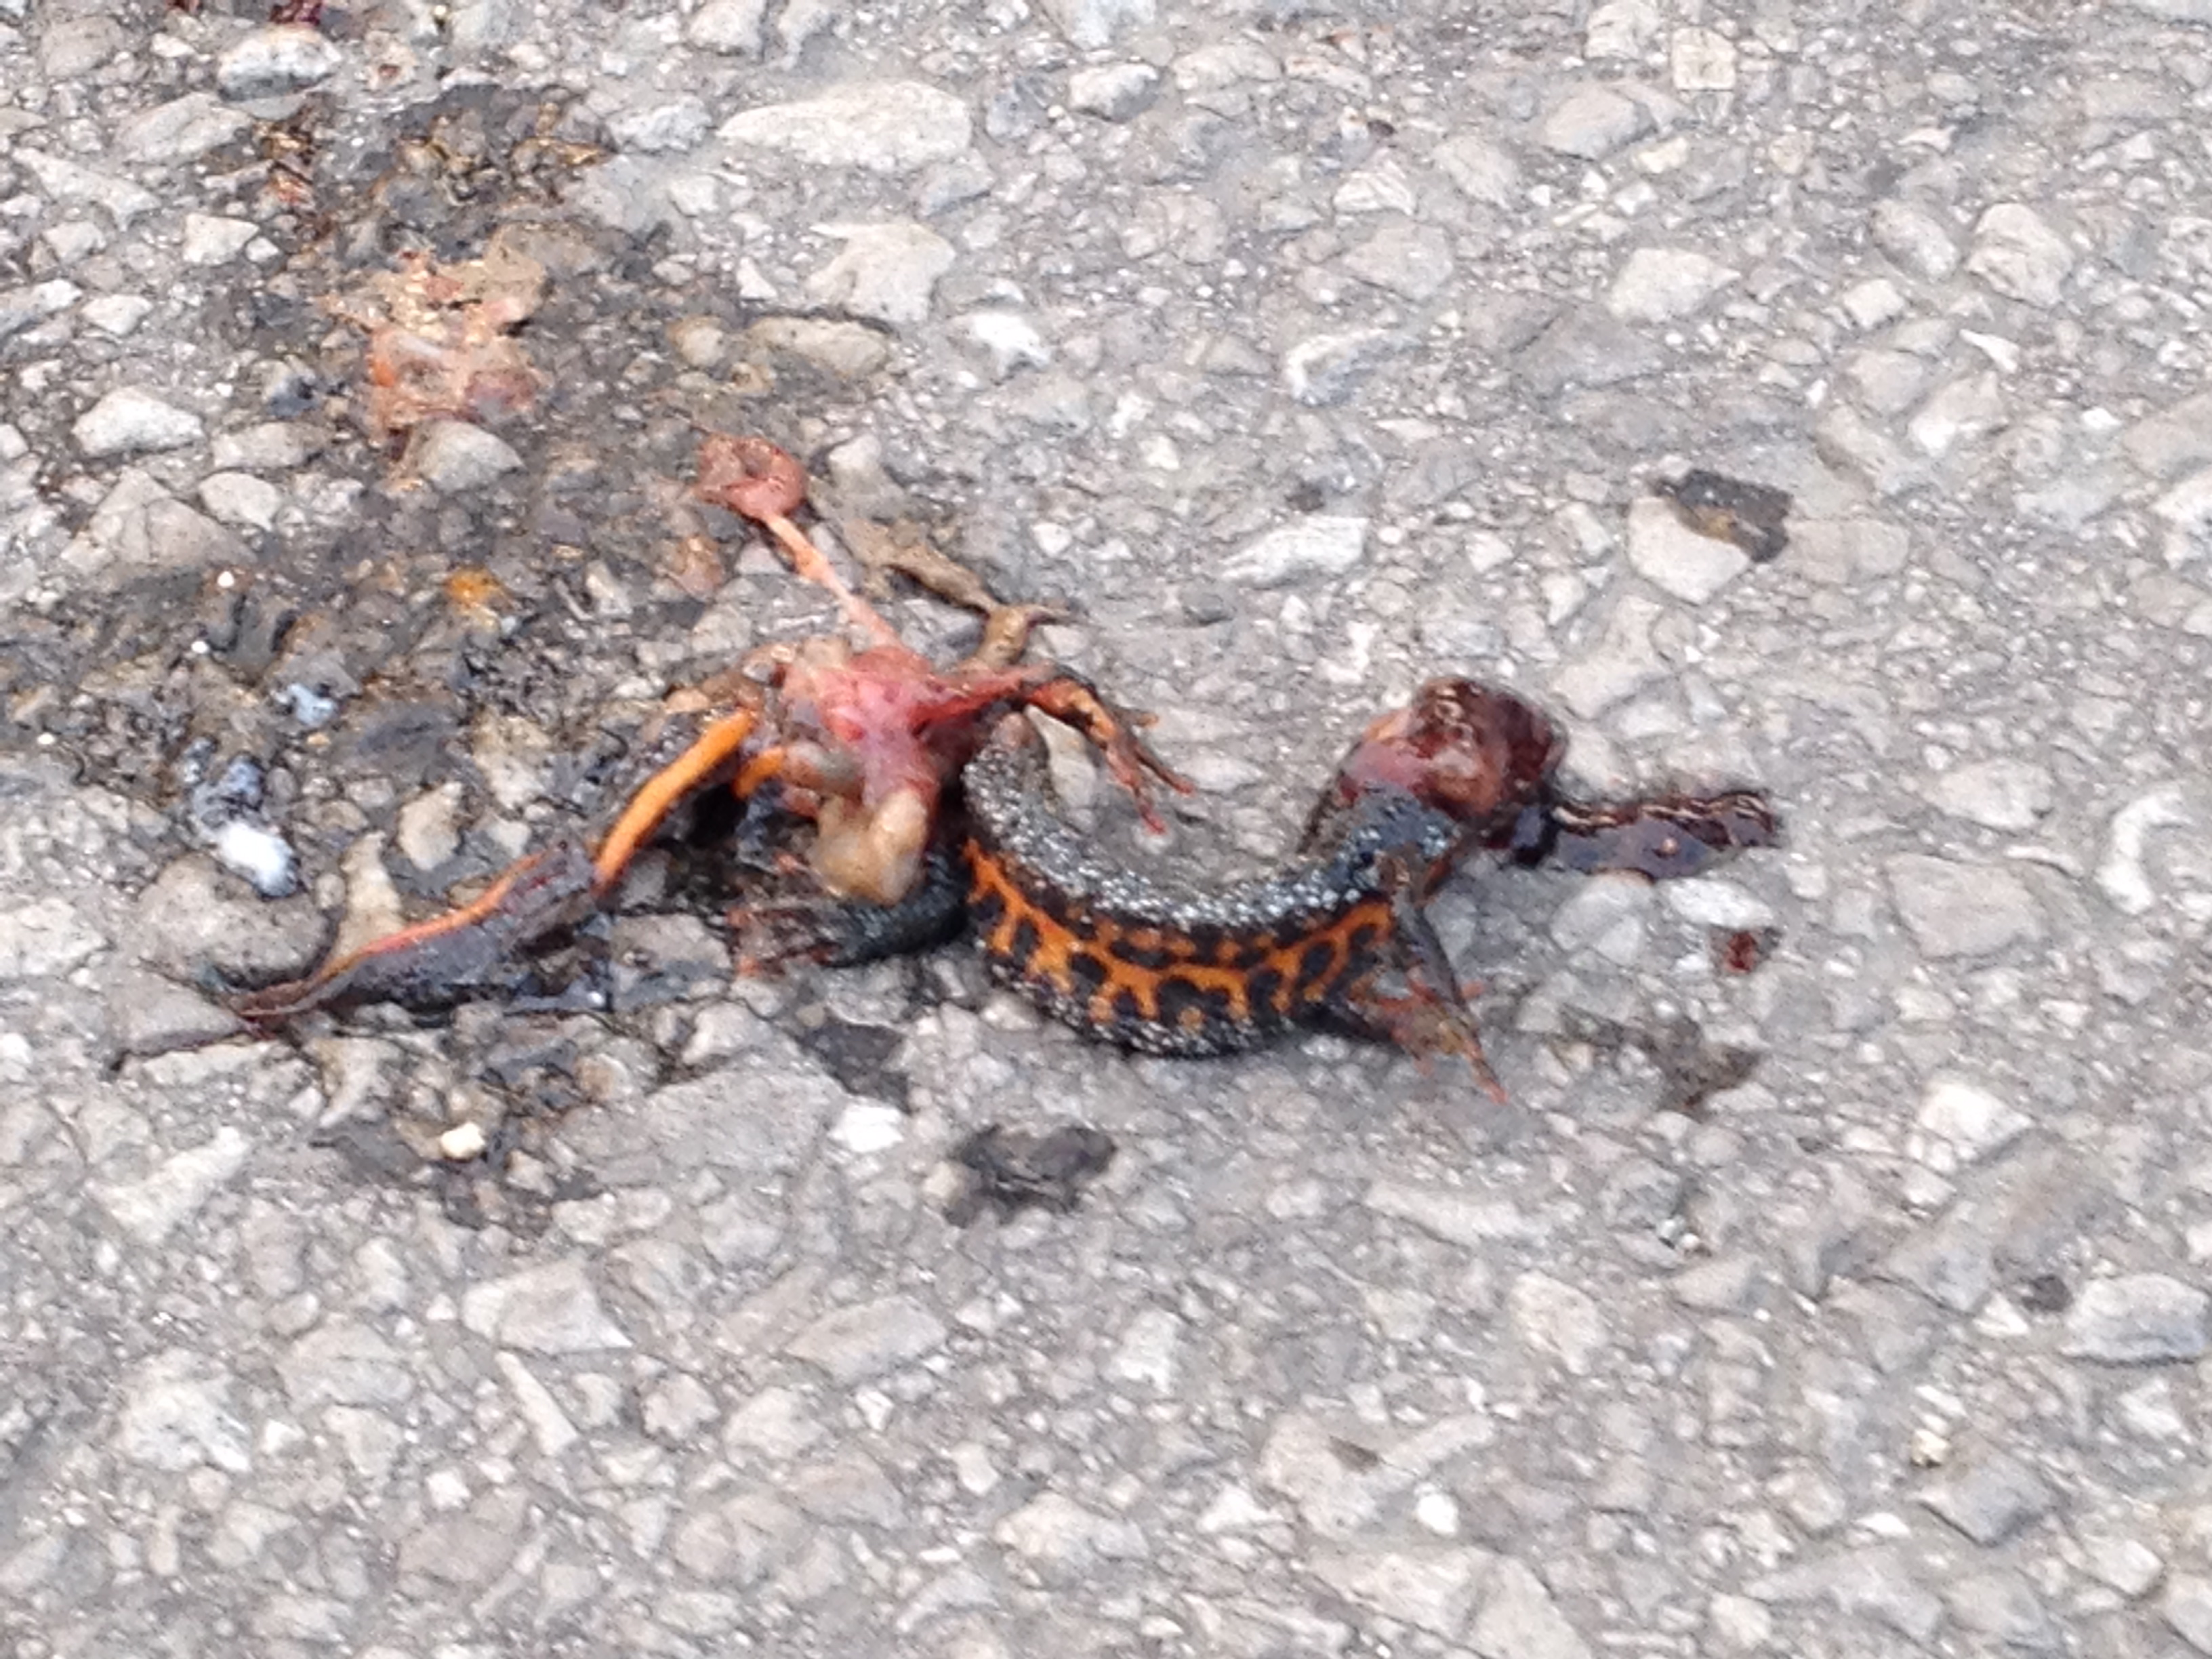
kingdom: Animalia
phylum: Chordata
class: Amphibia
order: Caudata
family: Salamandridae
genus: Triturus
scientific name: Triturus dobrogicus
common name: Danube crested newt
